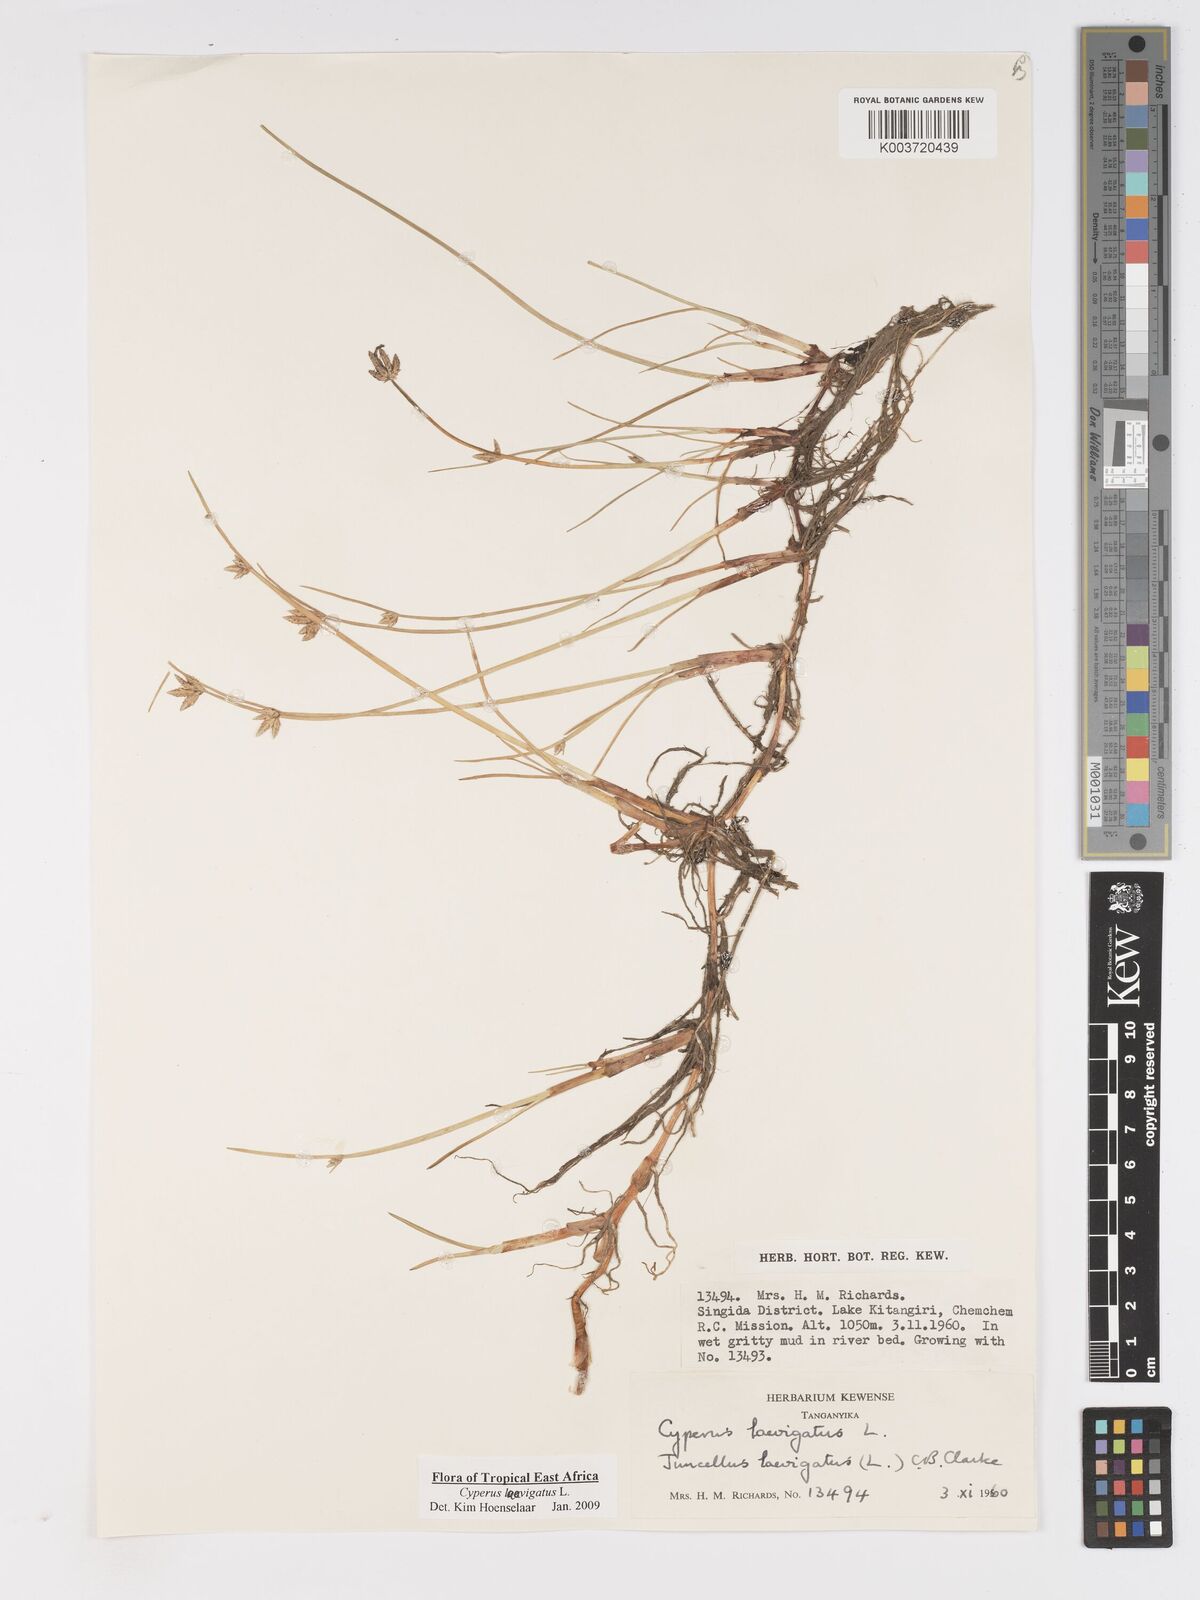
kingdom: Plantae
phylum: Tracheophyta
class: Liliopsida
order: Poales
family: Cyperaceae
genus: Cyperus
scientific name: Cyperus laevigatus
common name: Smooth flat sedge
